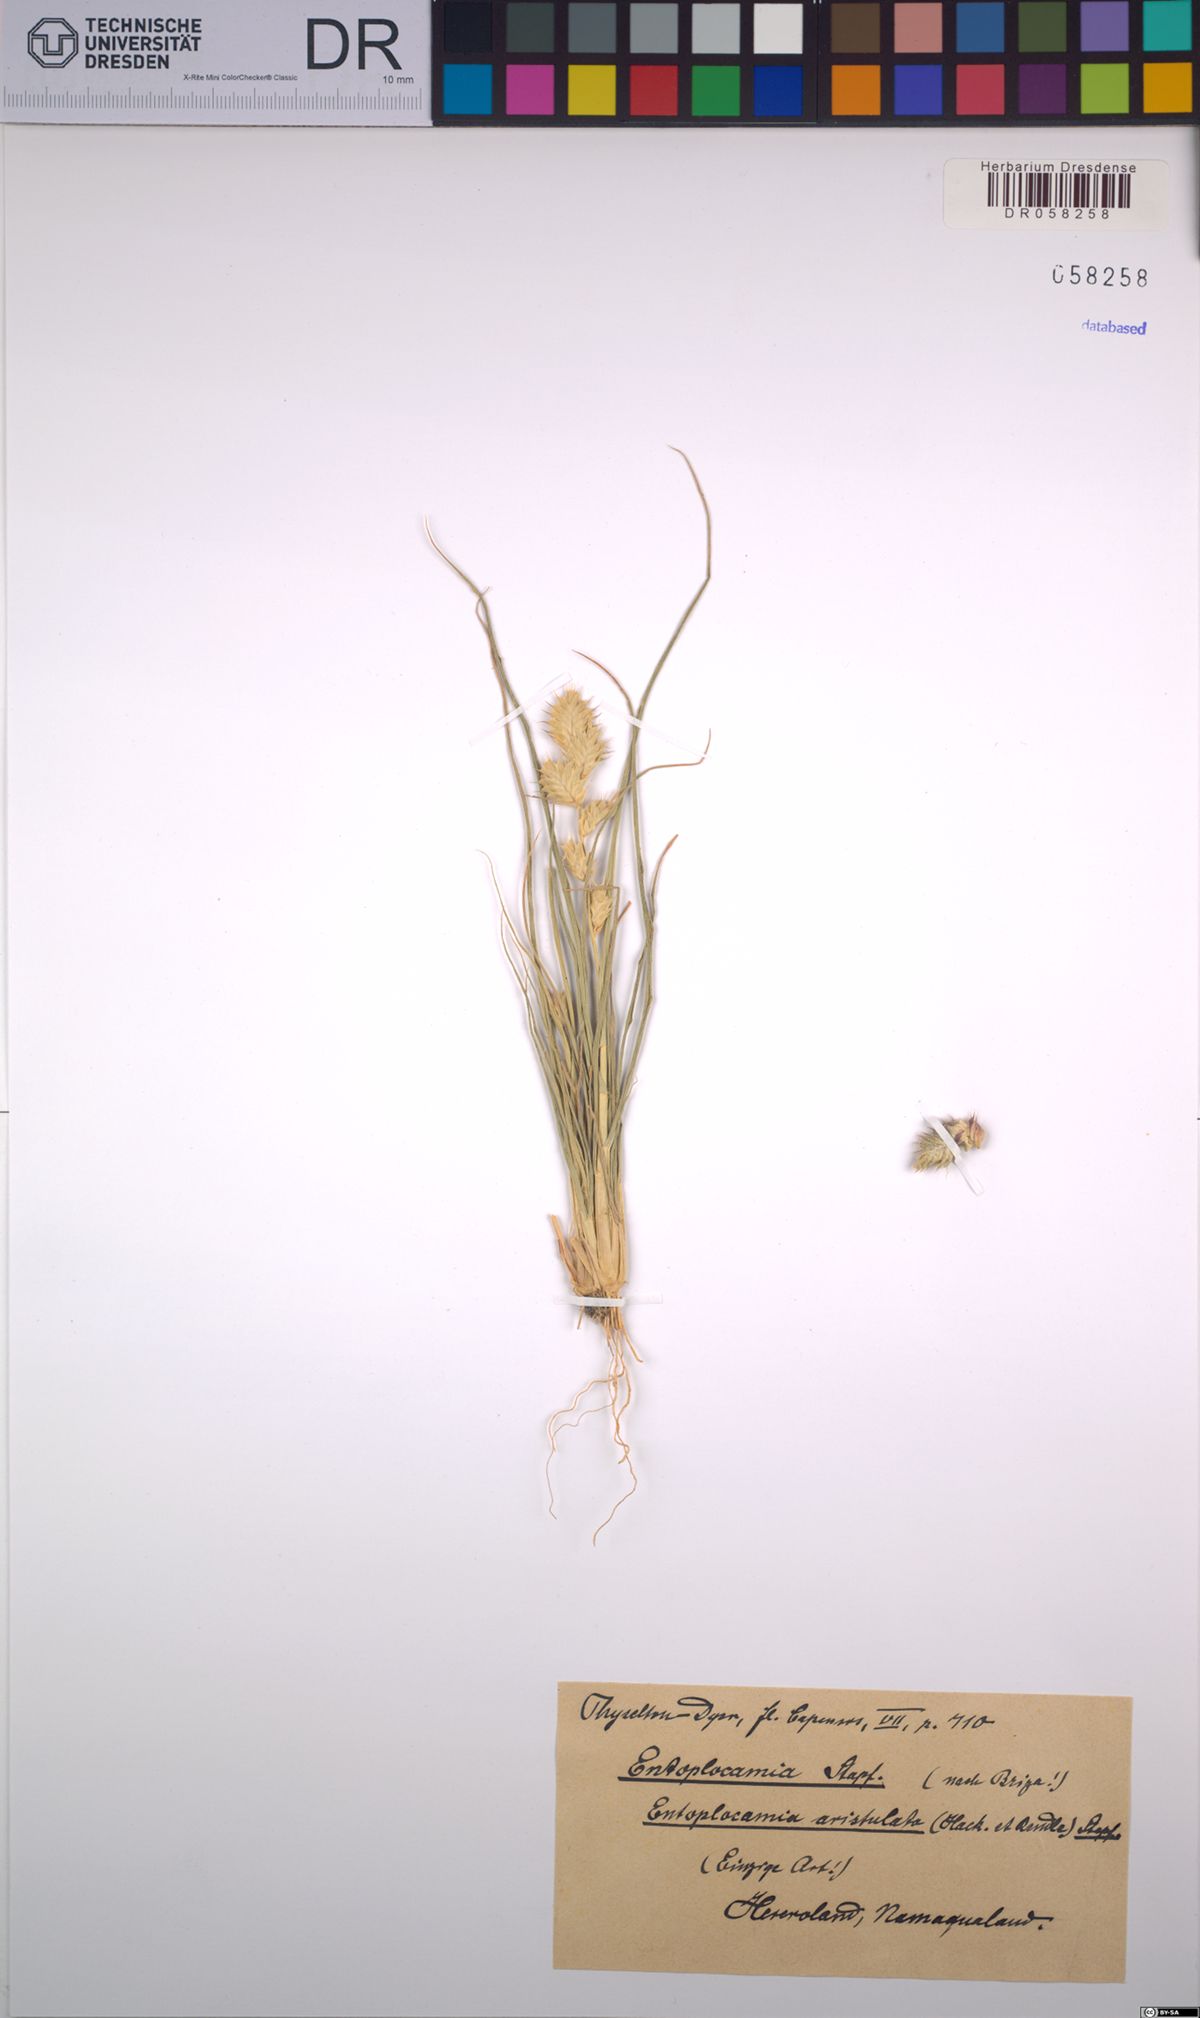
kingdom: Plantae
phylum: Tracheophyta
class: Liliopsida
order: Poales
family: Poaceae
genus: Entoplocamia
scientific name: Entoplocamia aristulata
